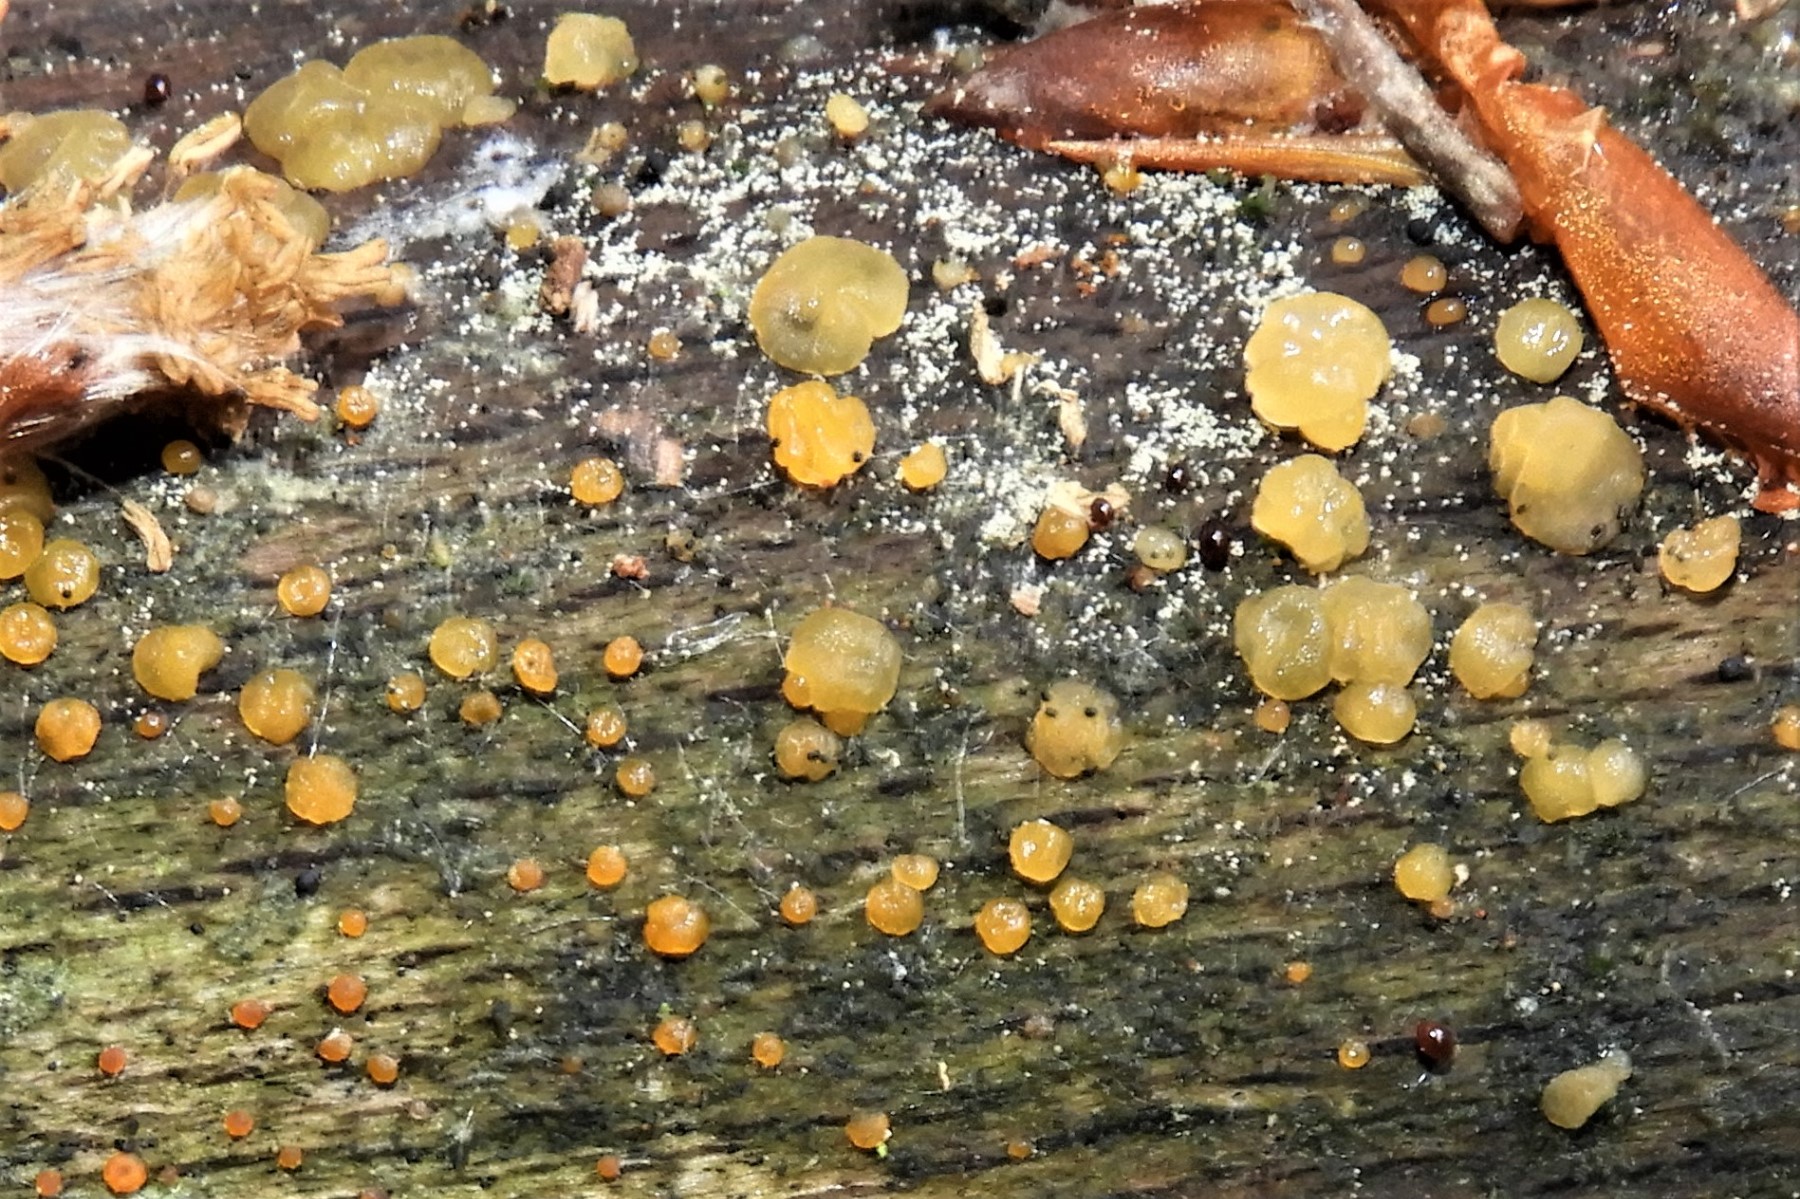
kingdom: Fungi
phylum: Basidiomycota
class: Dacrymycetes
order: Dacrymycetales
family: Dacrymycetaceae
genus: Dacrymyces
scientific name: Dacrymyces stillatus
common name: almindelig tåresvamp
